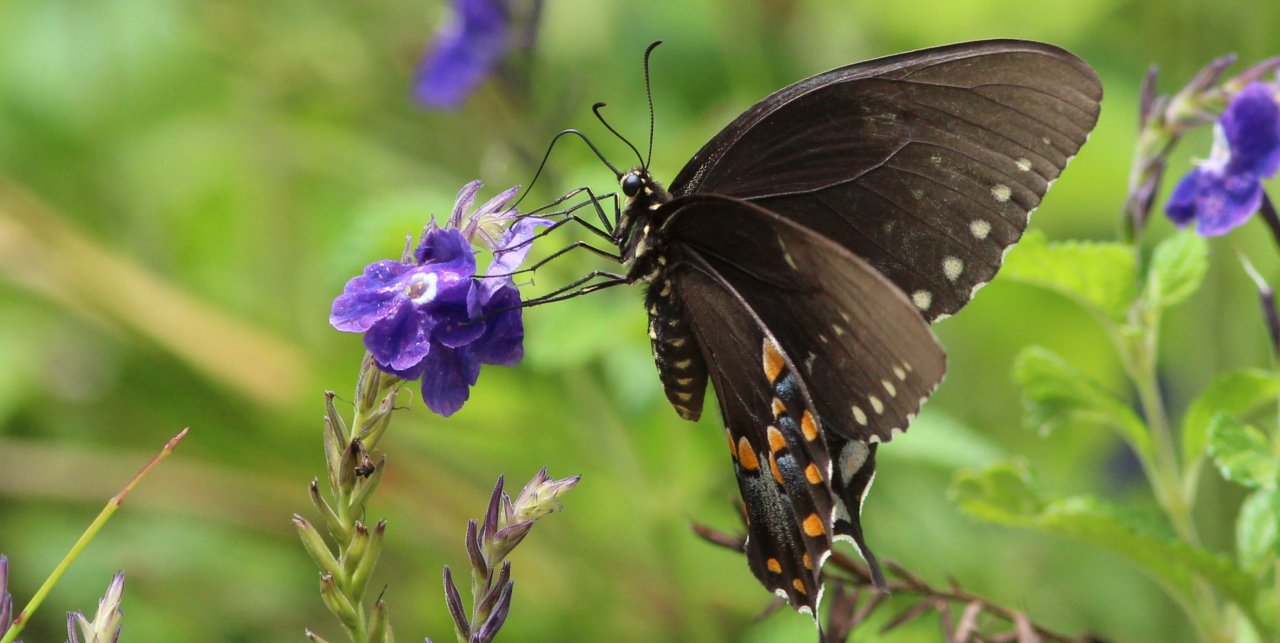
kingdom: Animalia
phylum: Arthropoda
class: Insecta
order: Lepidoptera
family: Papilionidae
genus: Pterourus
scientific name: Pterourus troilus
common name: Spicebush Swallowtail
